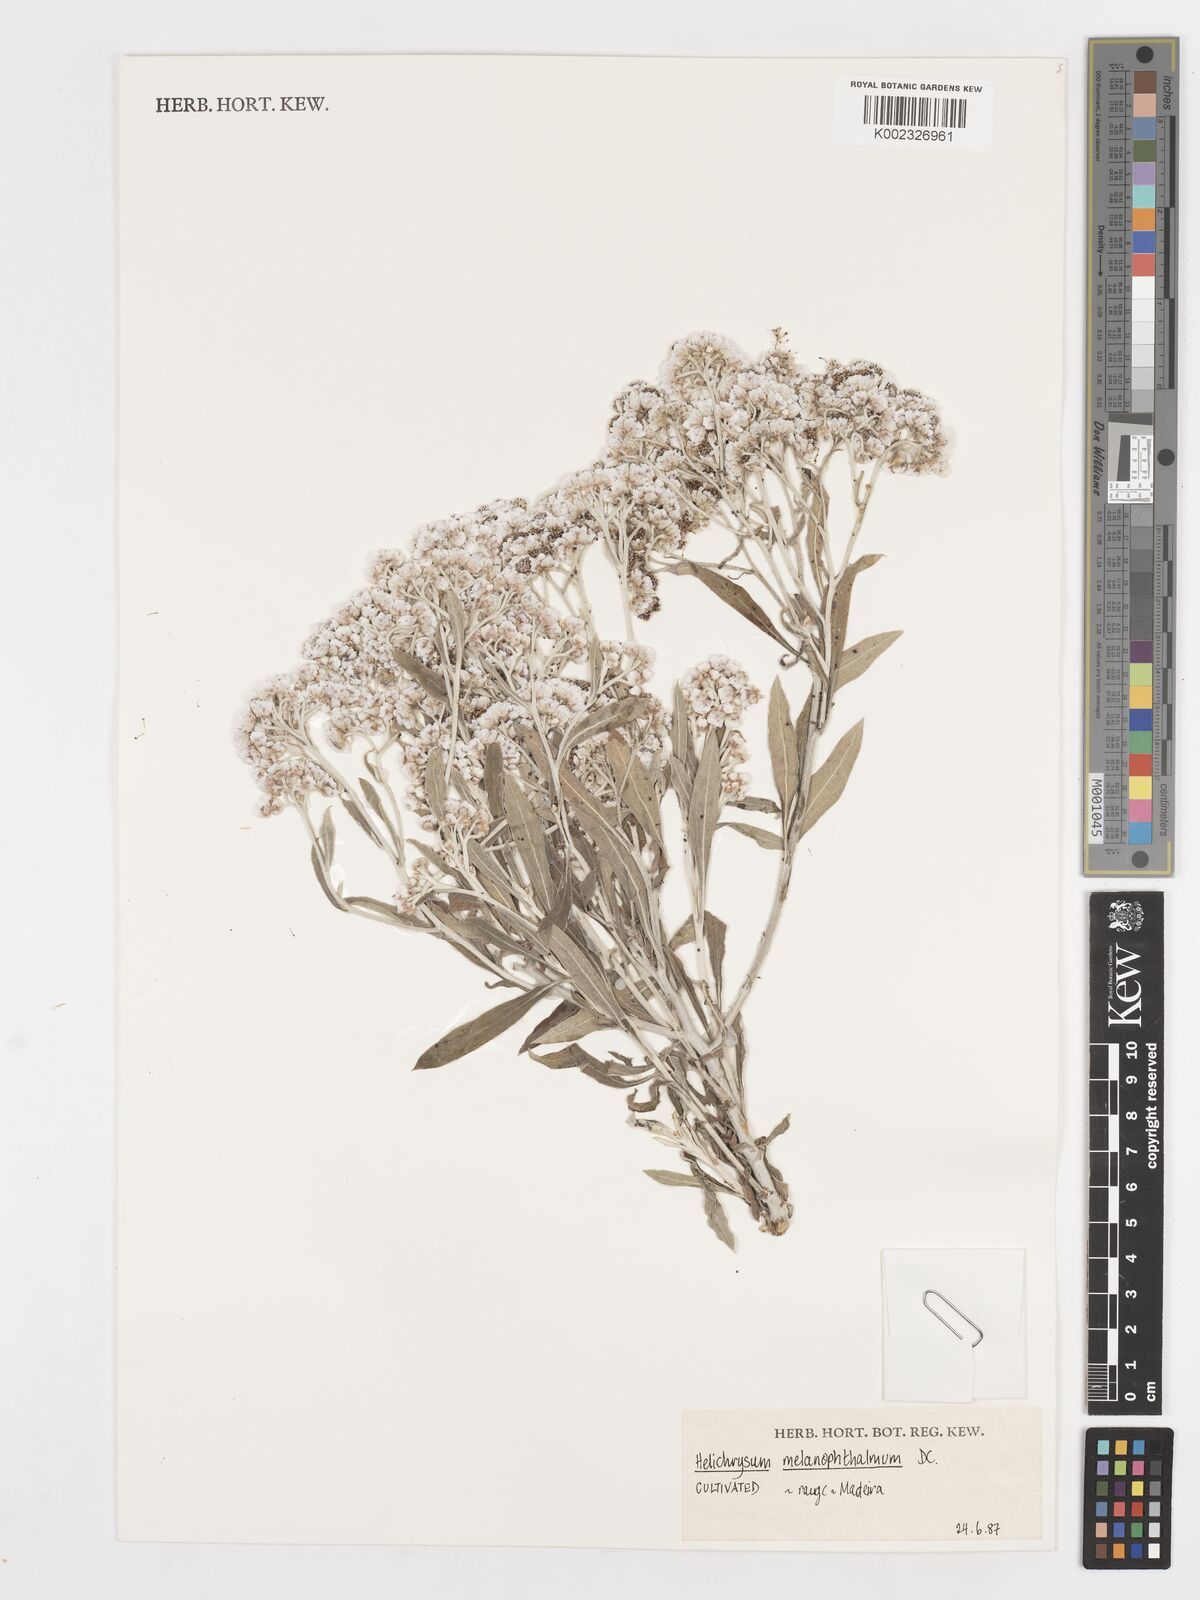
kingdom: Plantae
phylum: Tracheophyta
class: Magnoliopsida
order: Asterales
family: Asteraceae
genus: Helichrysum
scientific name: Helichrysum melaleucum
